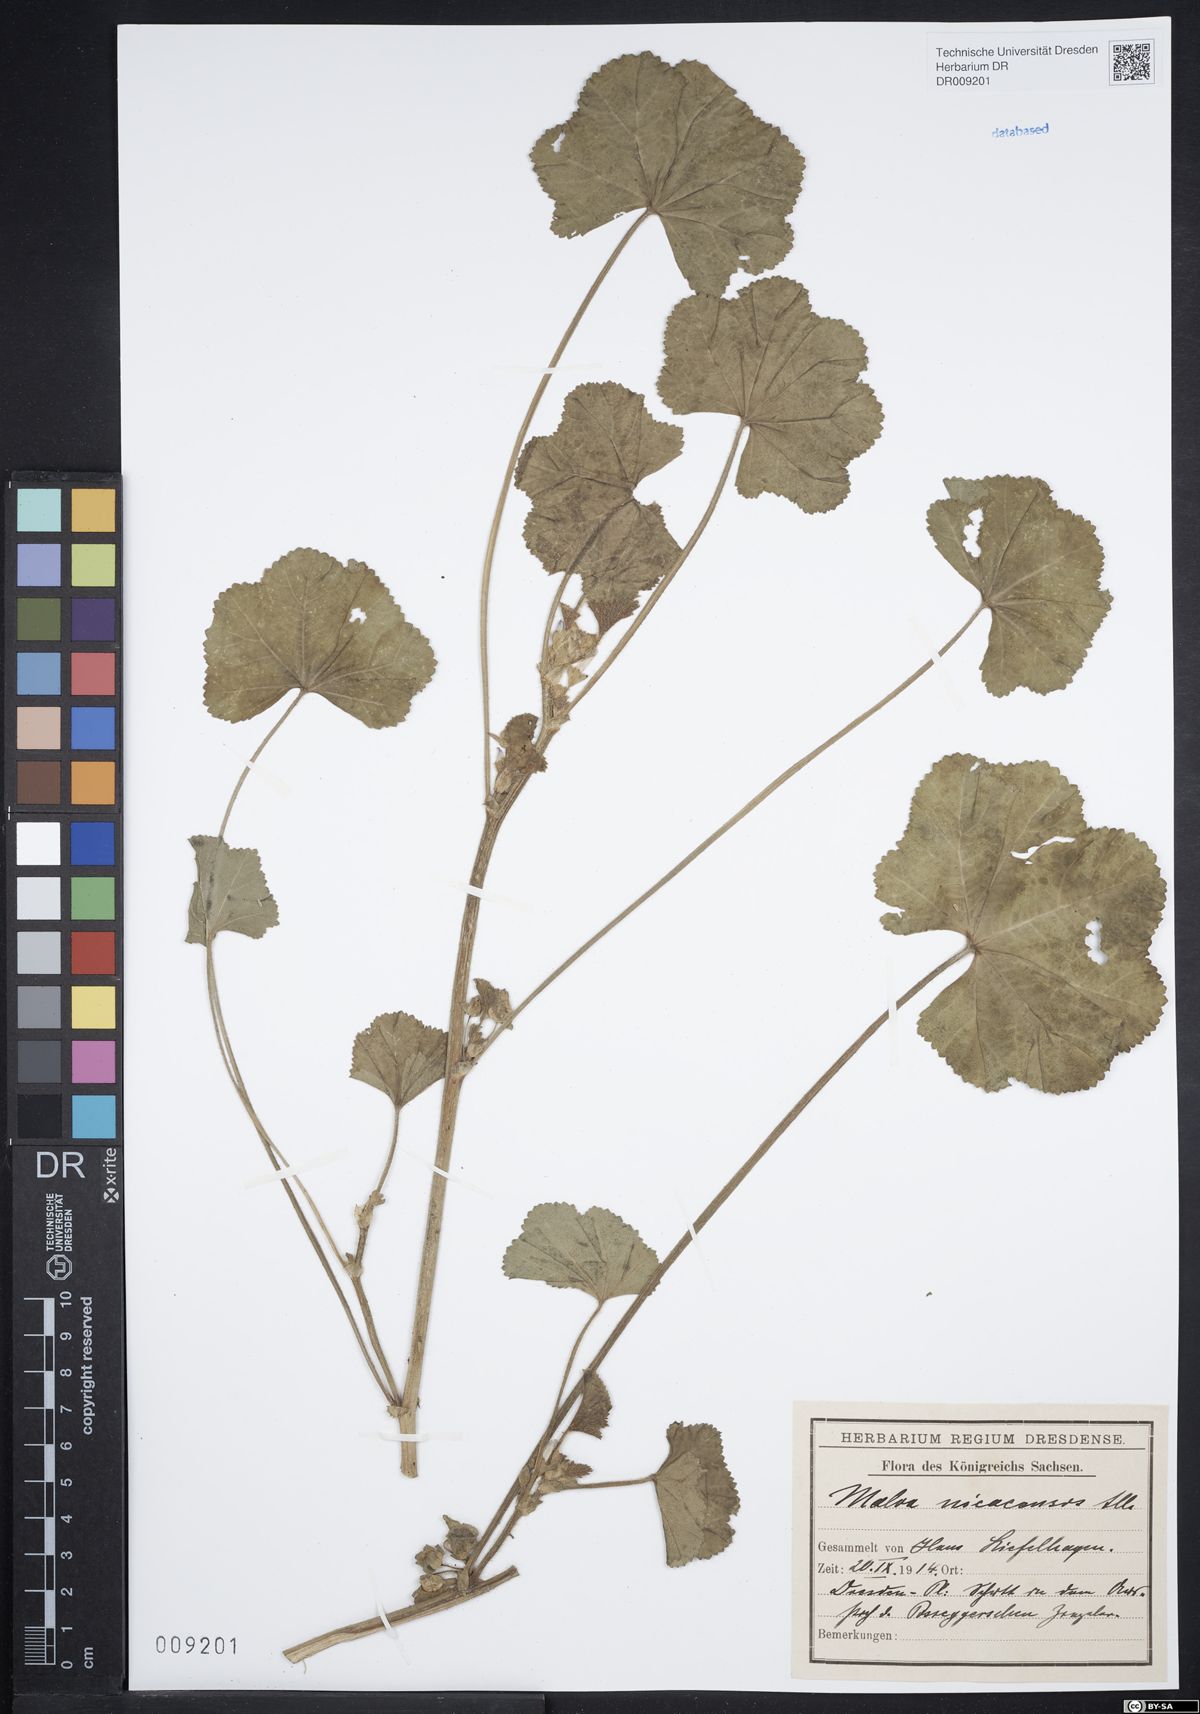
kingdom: Plantae
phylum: Tracheophyta
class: Magnoliopsida
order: Malvales
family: Malvaceae
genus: Malva
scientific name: Malva sylvestris
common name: Common mallow
